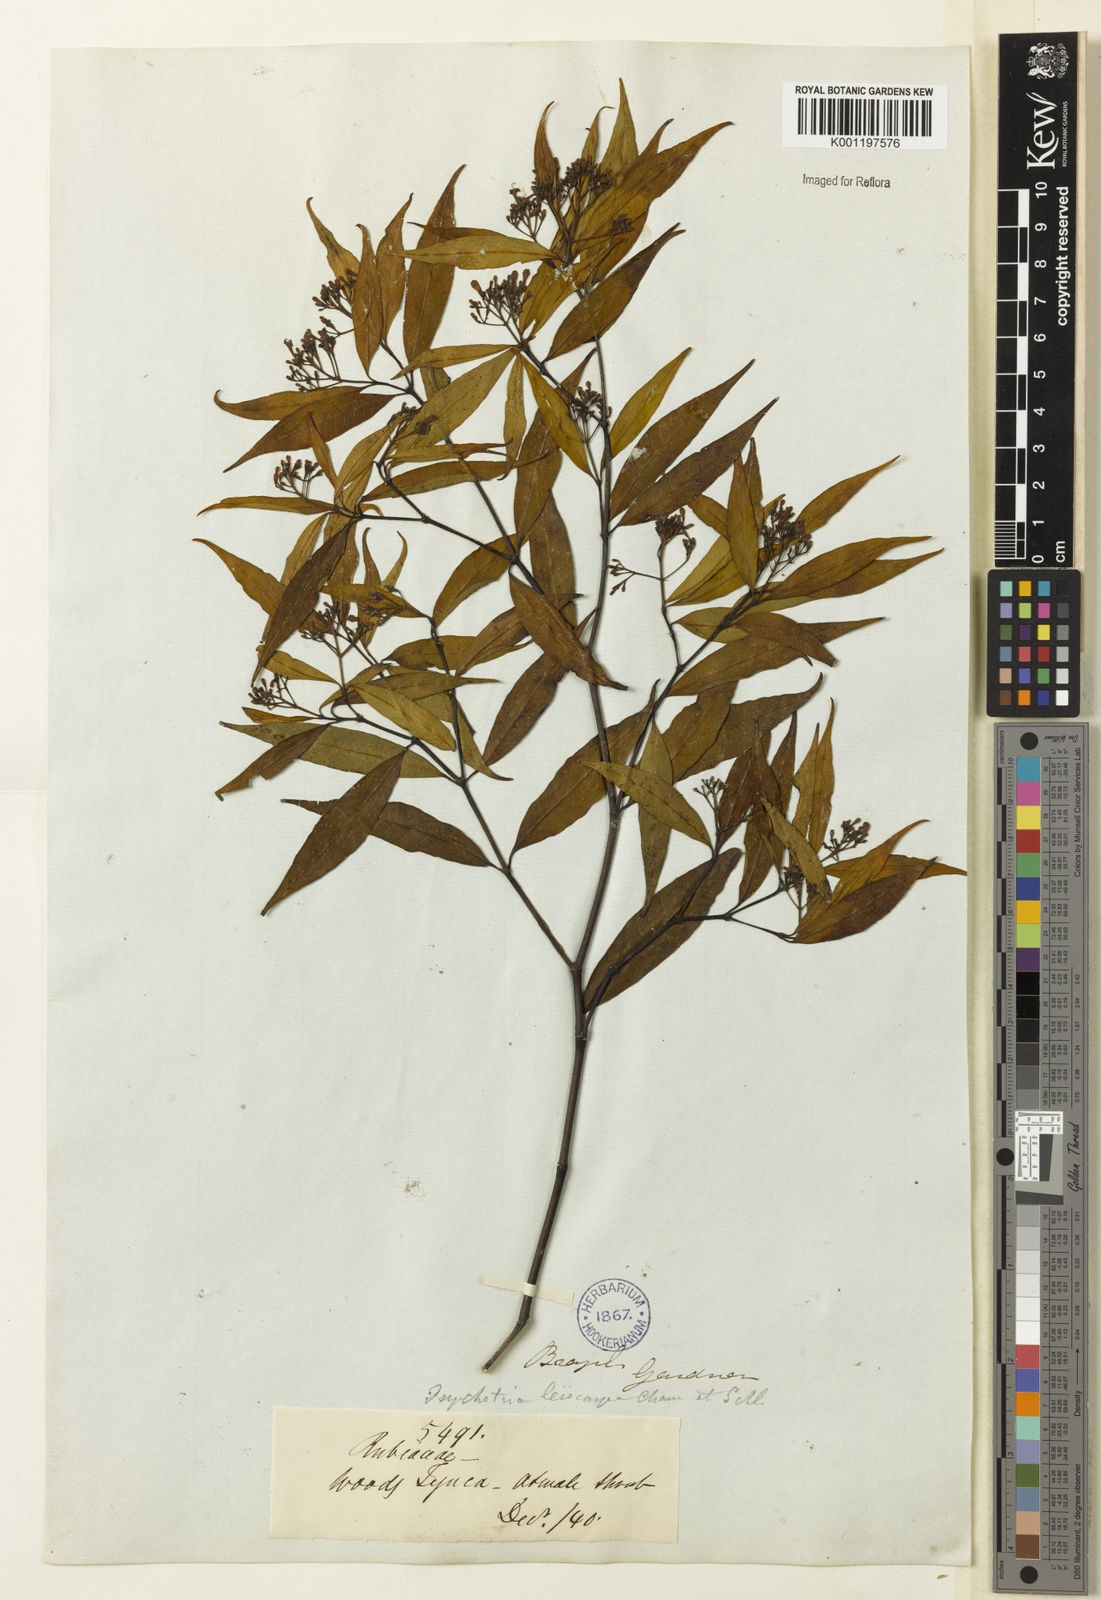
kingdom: Plantae
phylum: Tracheophyta
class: Magnoliopsida
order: Gentianales
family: Rubiaceae
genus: Psychotria
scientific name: Psychotria leiocarpa
